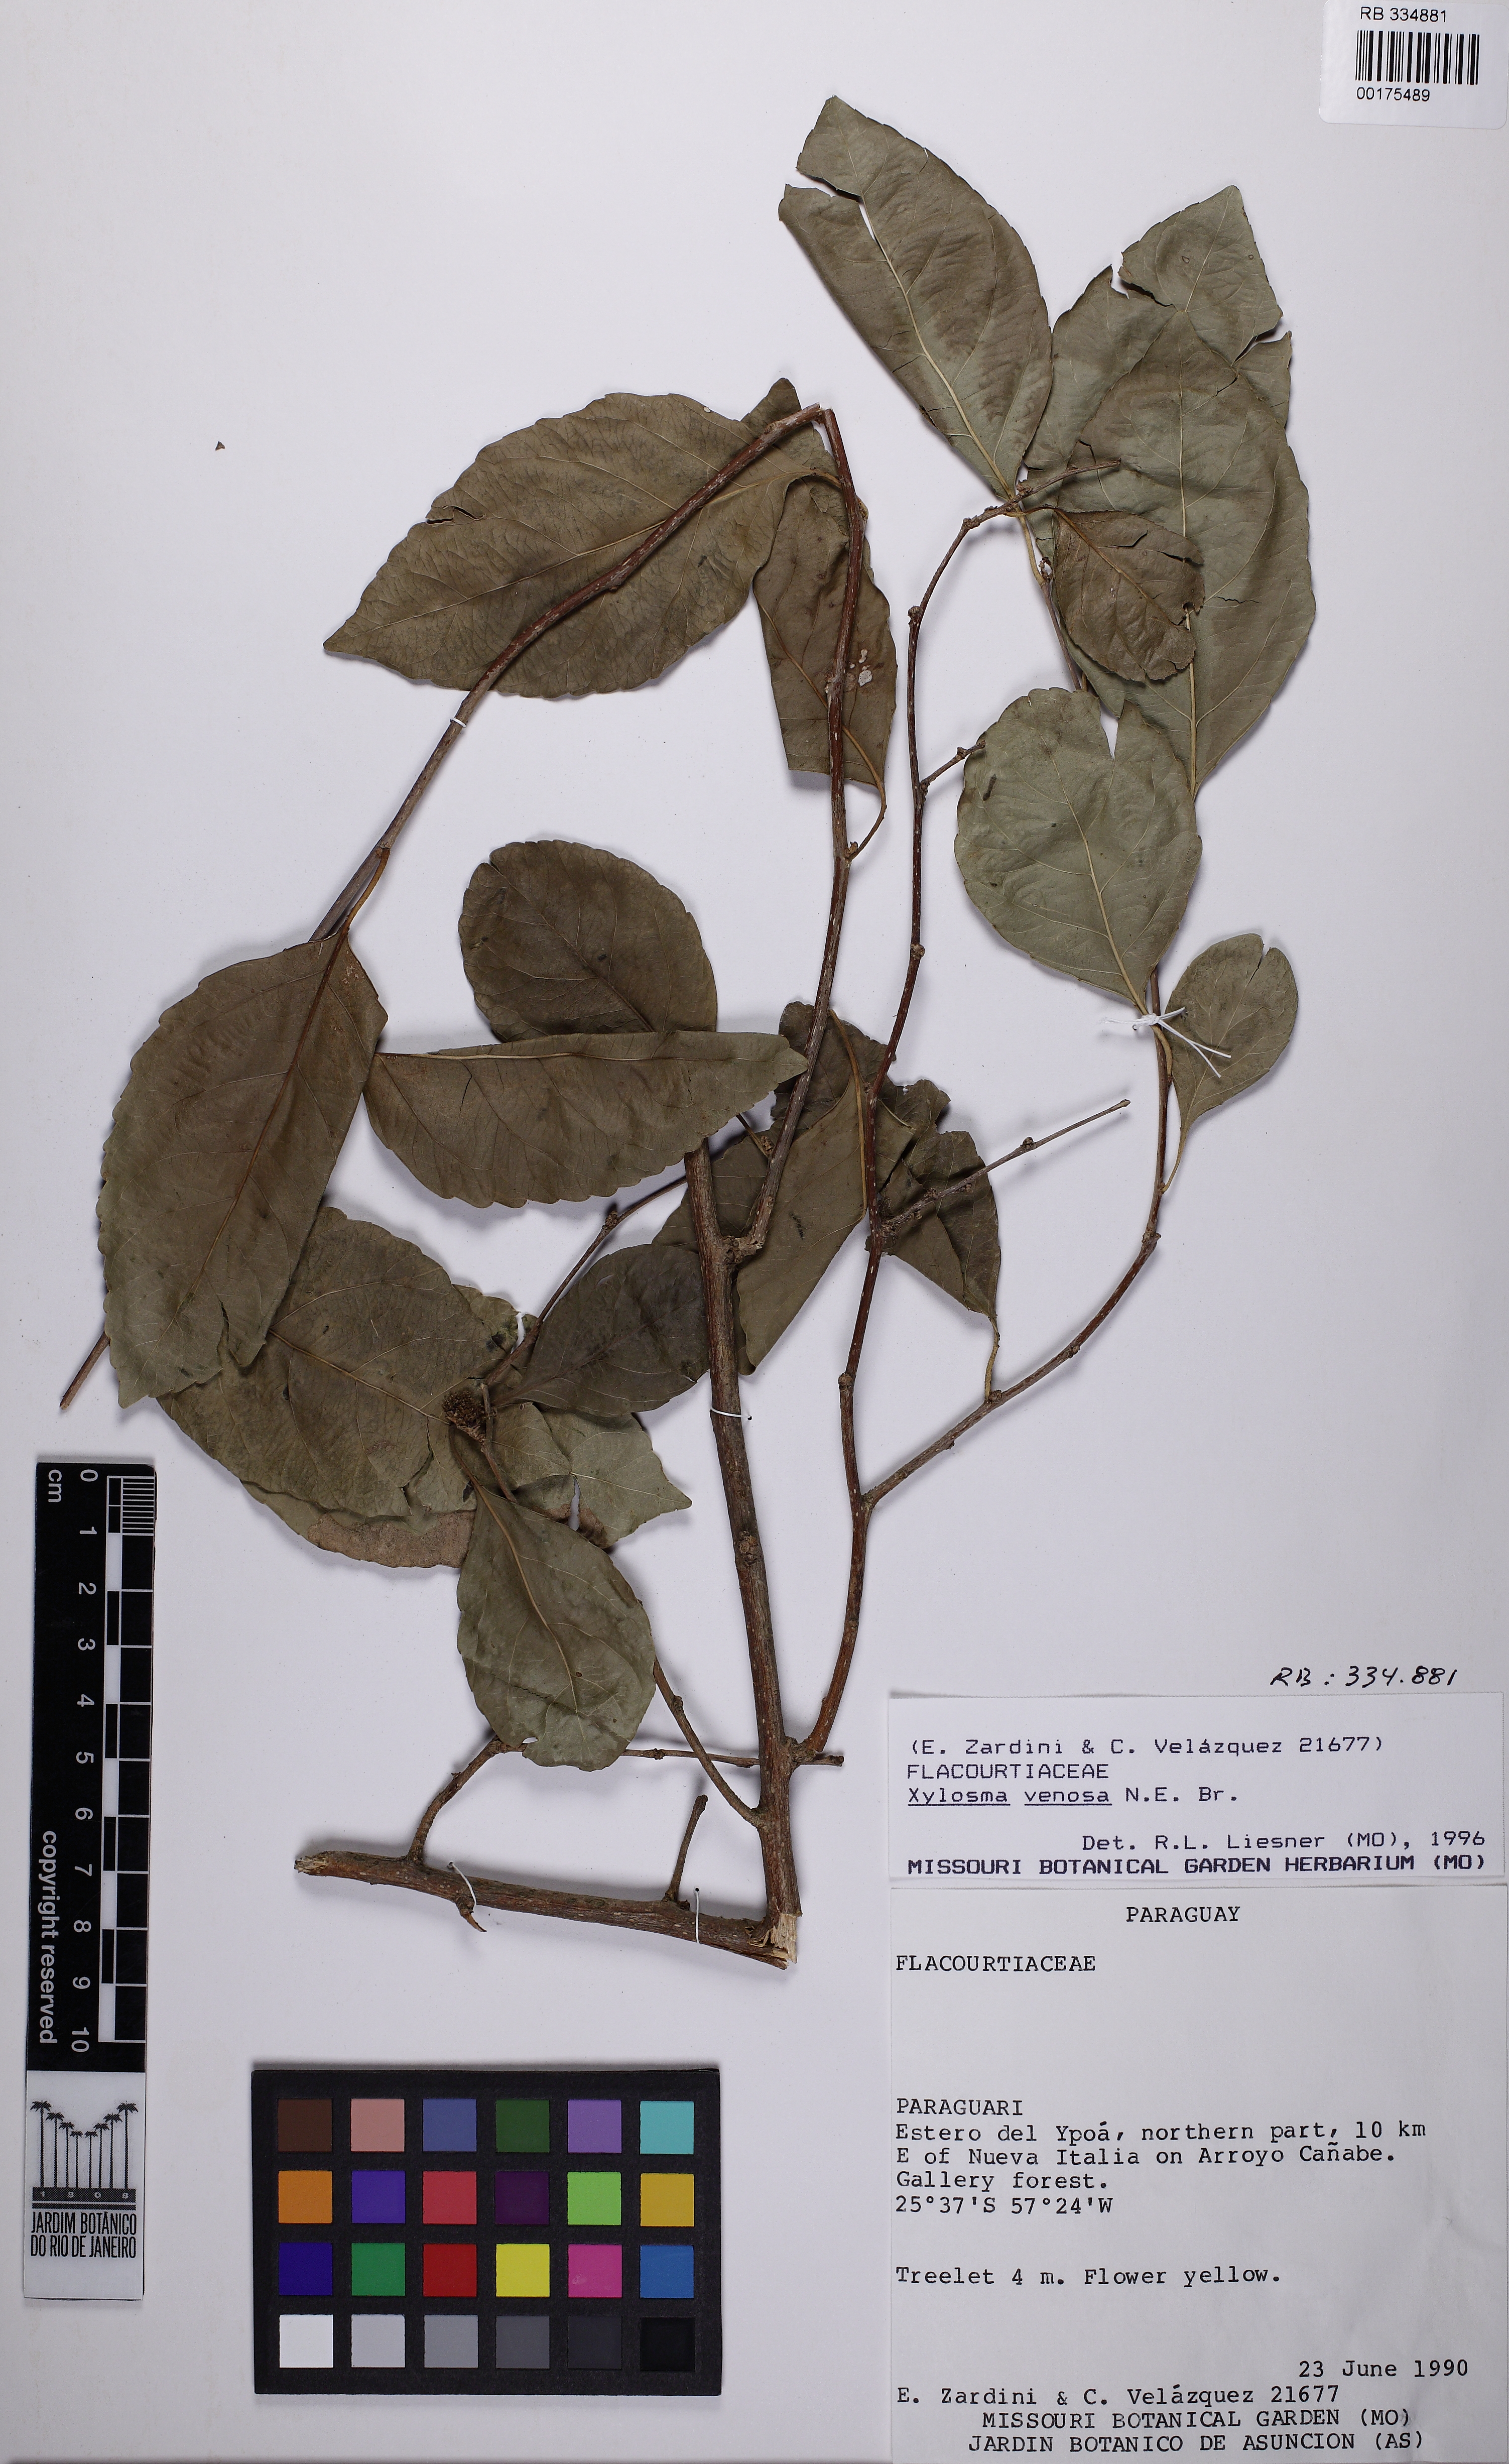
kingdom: Plantae
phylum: Tracheophyta
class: Magnoliopsida
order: Malpighiales
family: Salicaceae
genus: Xylosma
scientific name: Xylosma venosa
